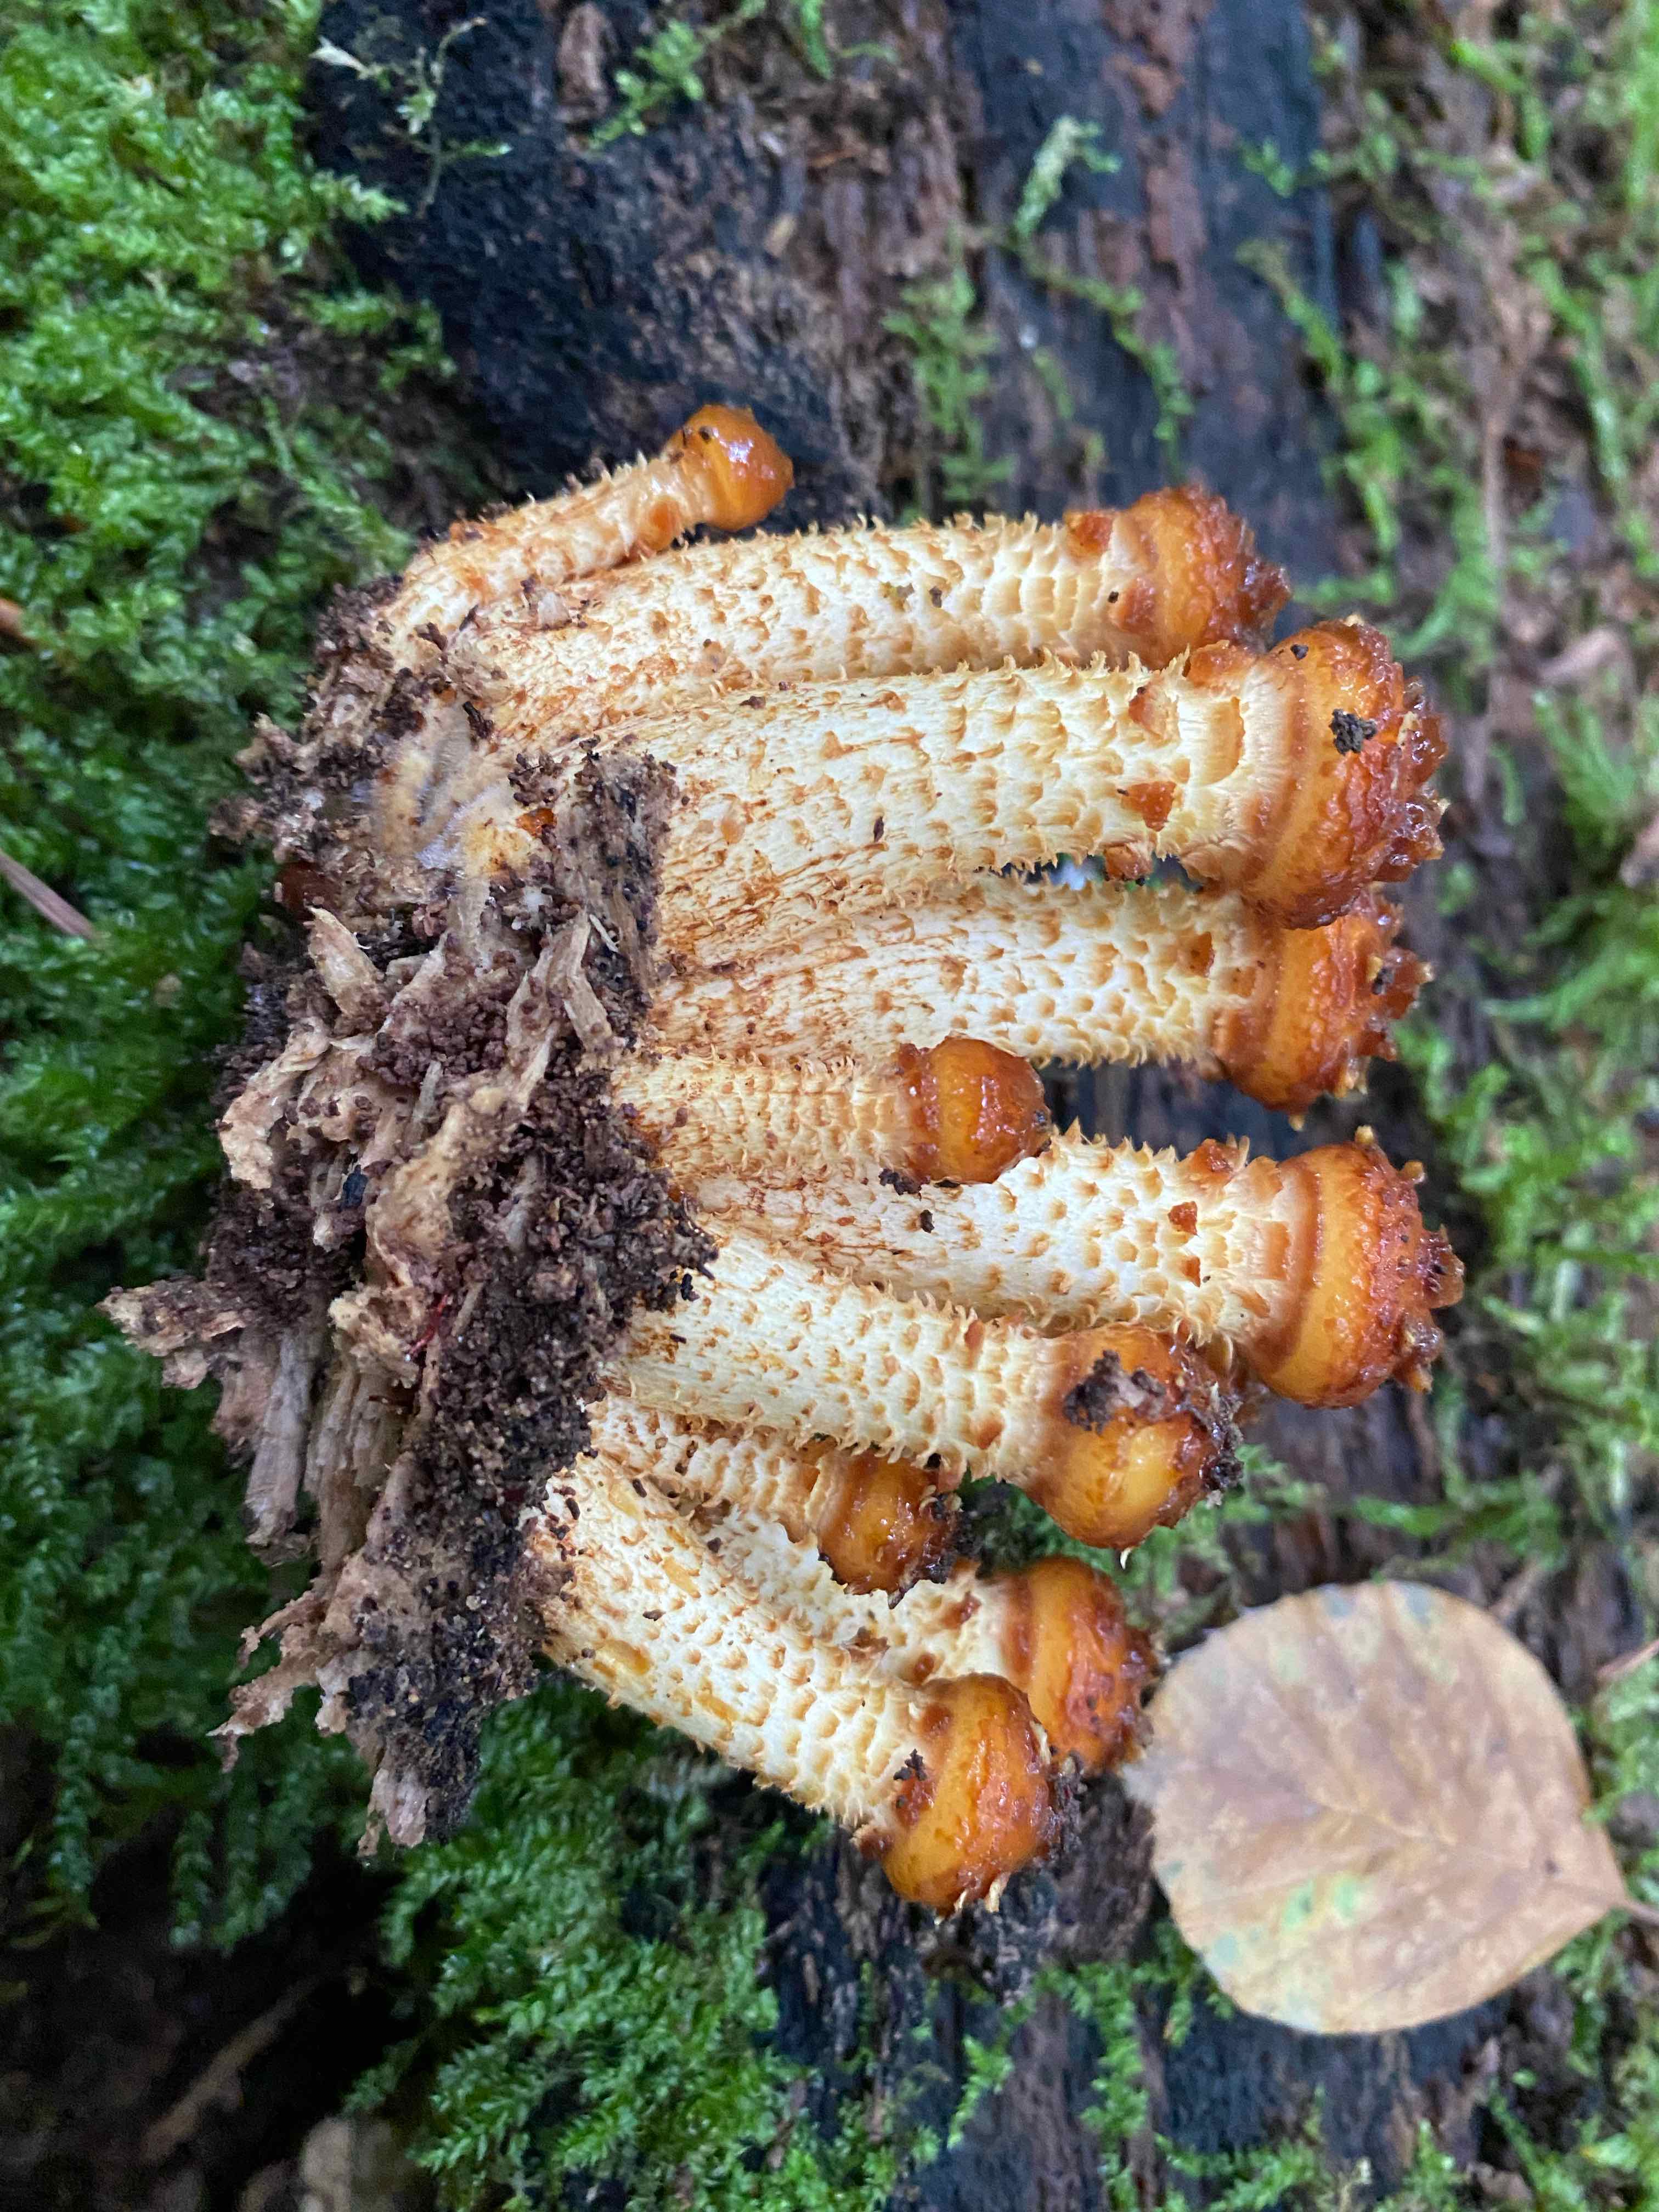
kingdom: Fungi
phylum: Basidiomycota
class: Agaricomycetes
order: Agaricales
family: Strophariaceae
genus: Pholiota
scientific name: Pholiota squarrosa
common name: krumskællet skælhat
